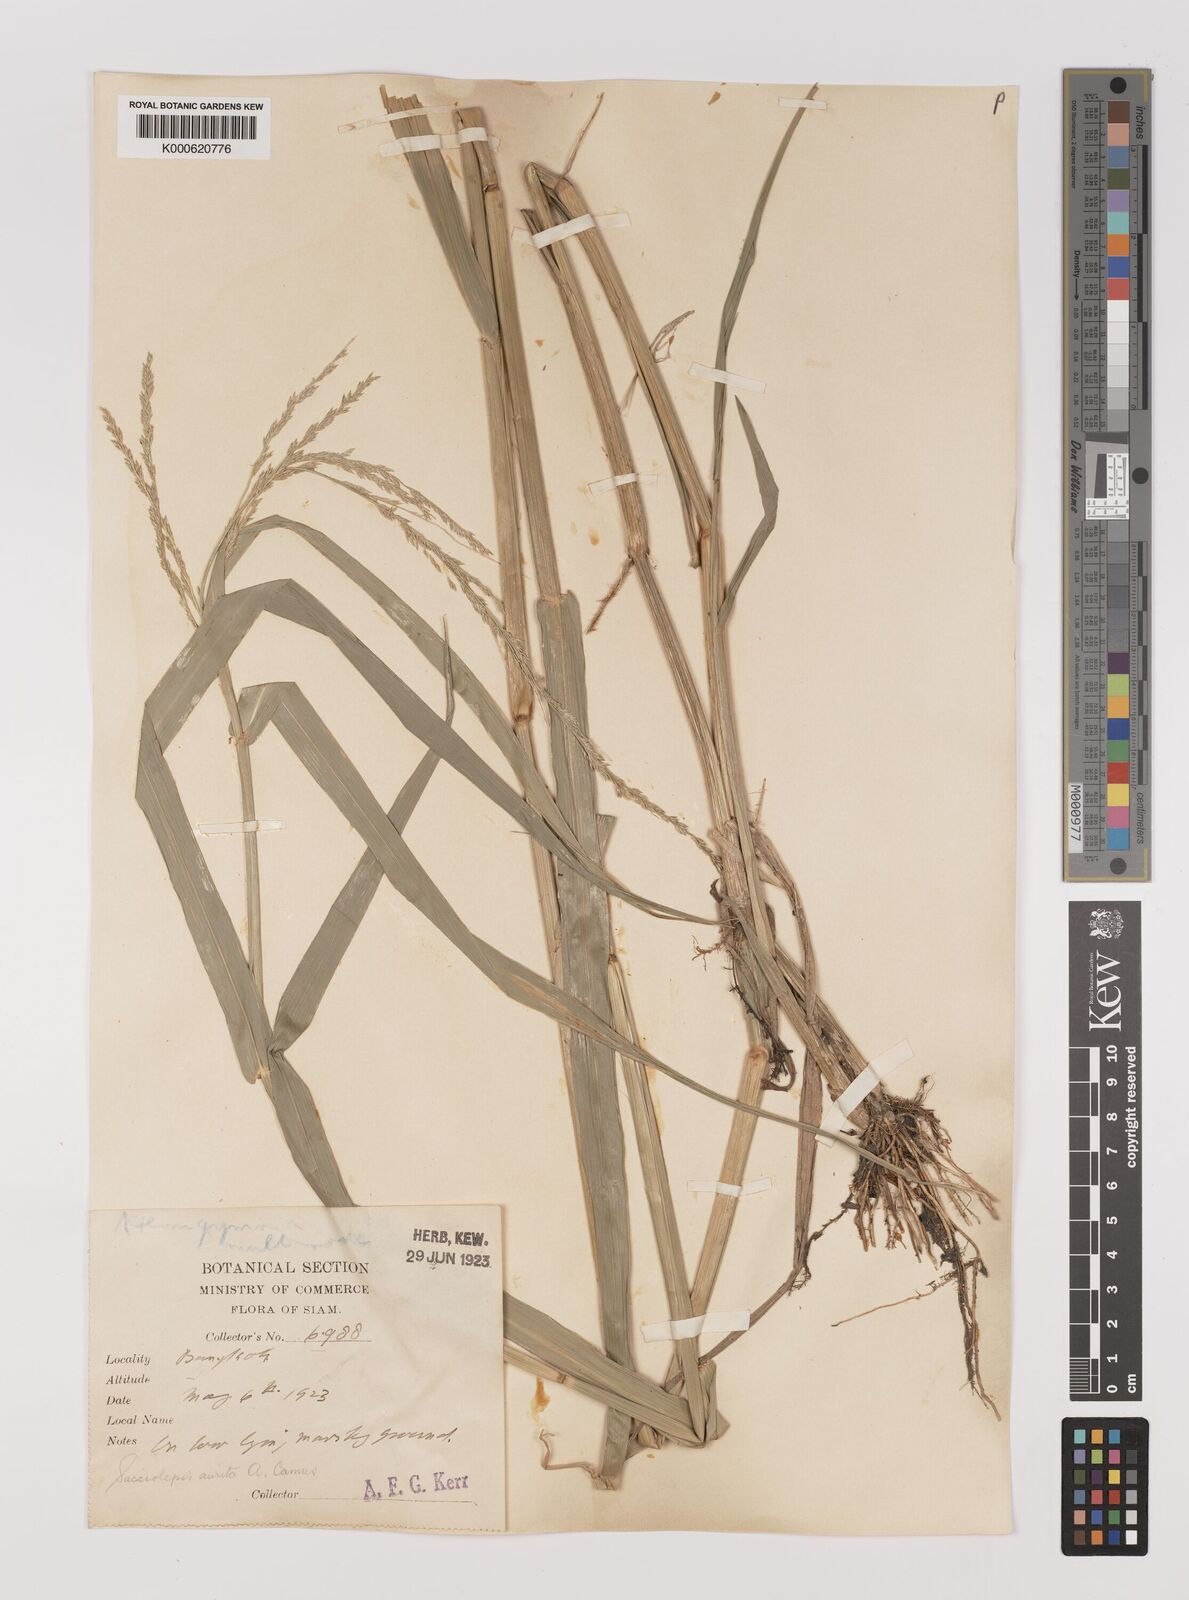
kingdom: Plantae
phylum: Tracheophyta
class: Liliopsida
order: Poales
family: Poaceae
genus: Hymenachne
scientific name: Hymenachne aurita
